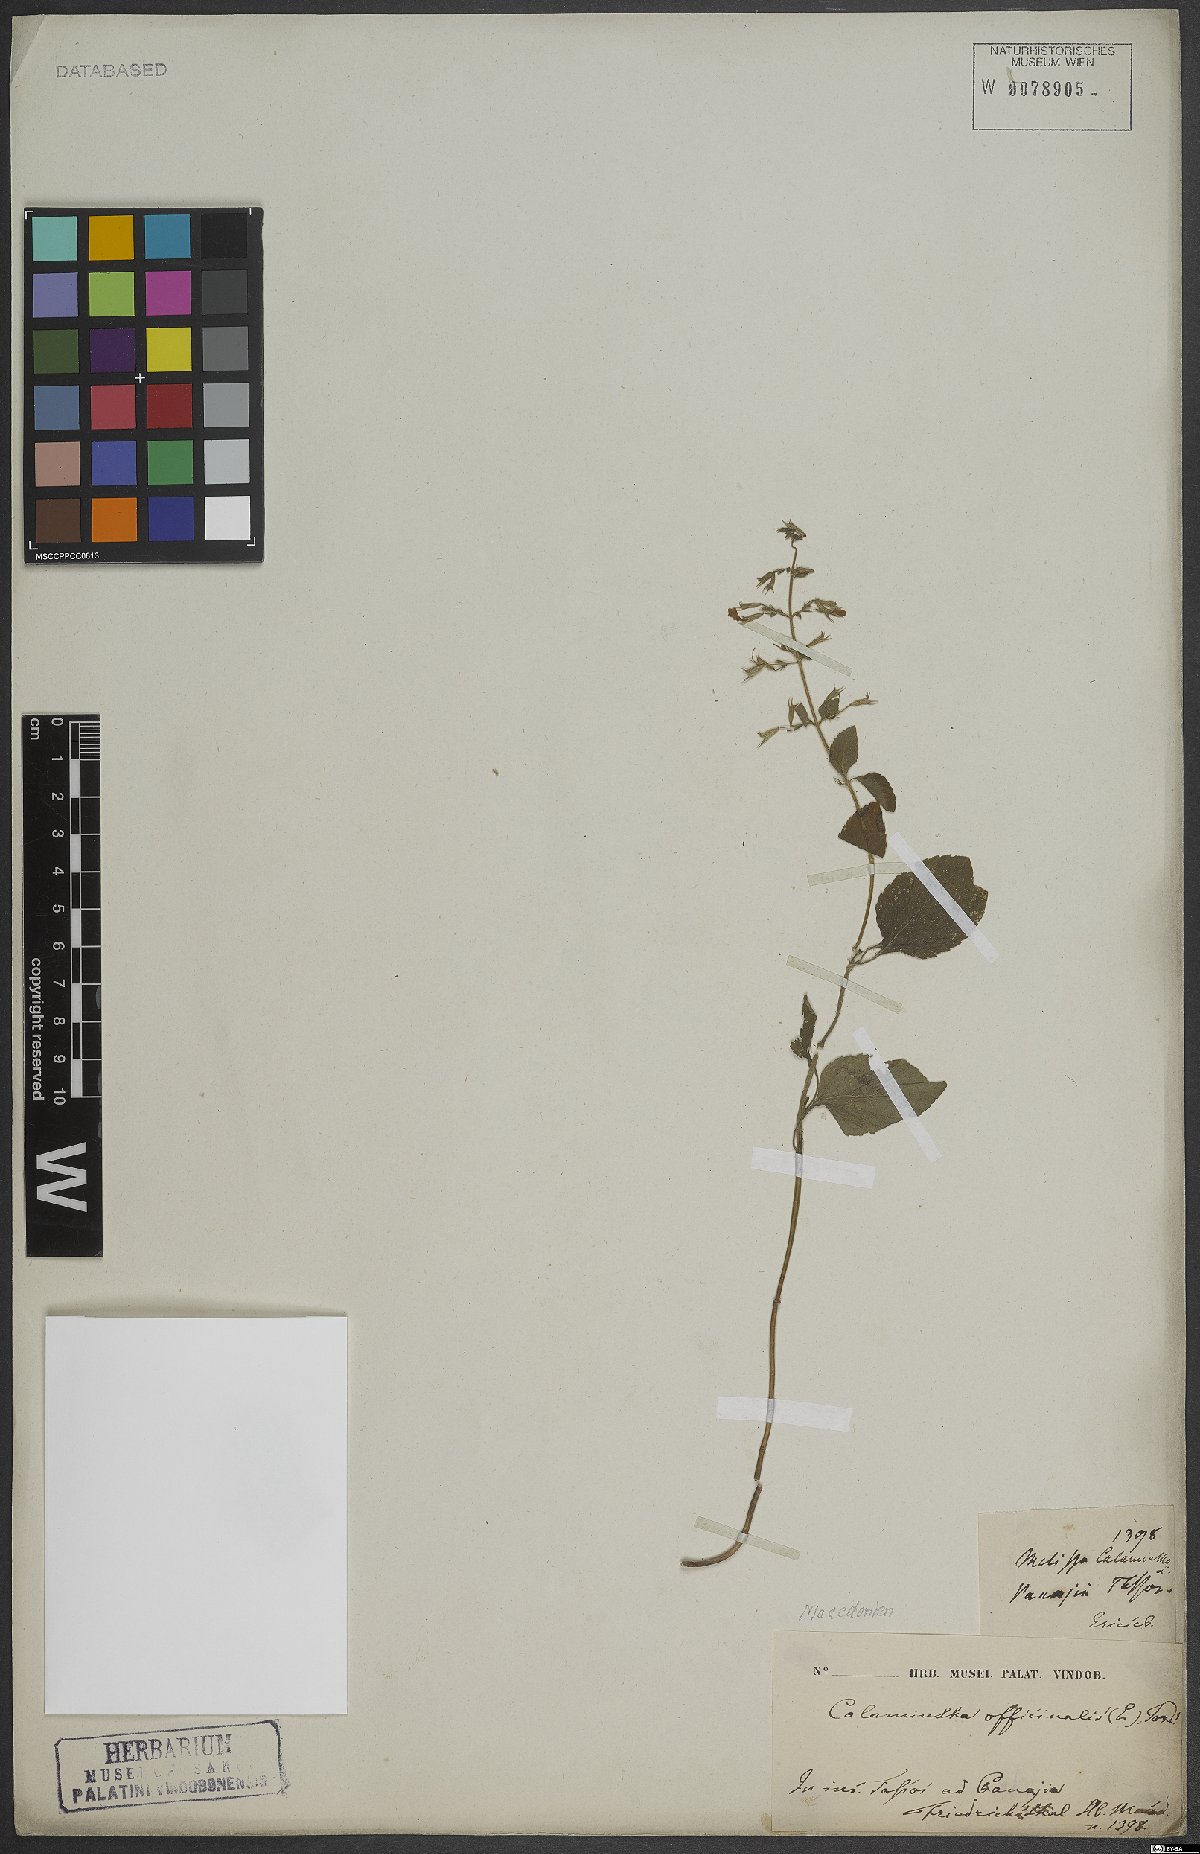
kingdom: Plantae
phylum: Tracheophyta
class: Magnoliopsida
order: Lamiales
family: Lamiaceae
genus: Calamintha
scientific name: Calamintha
